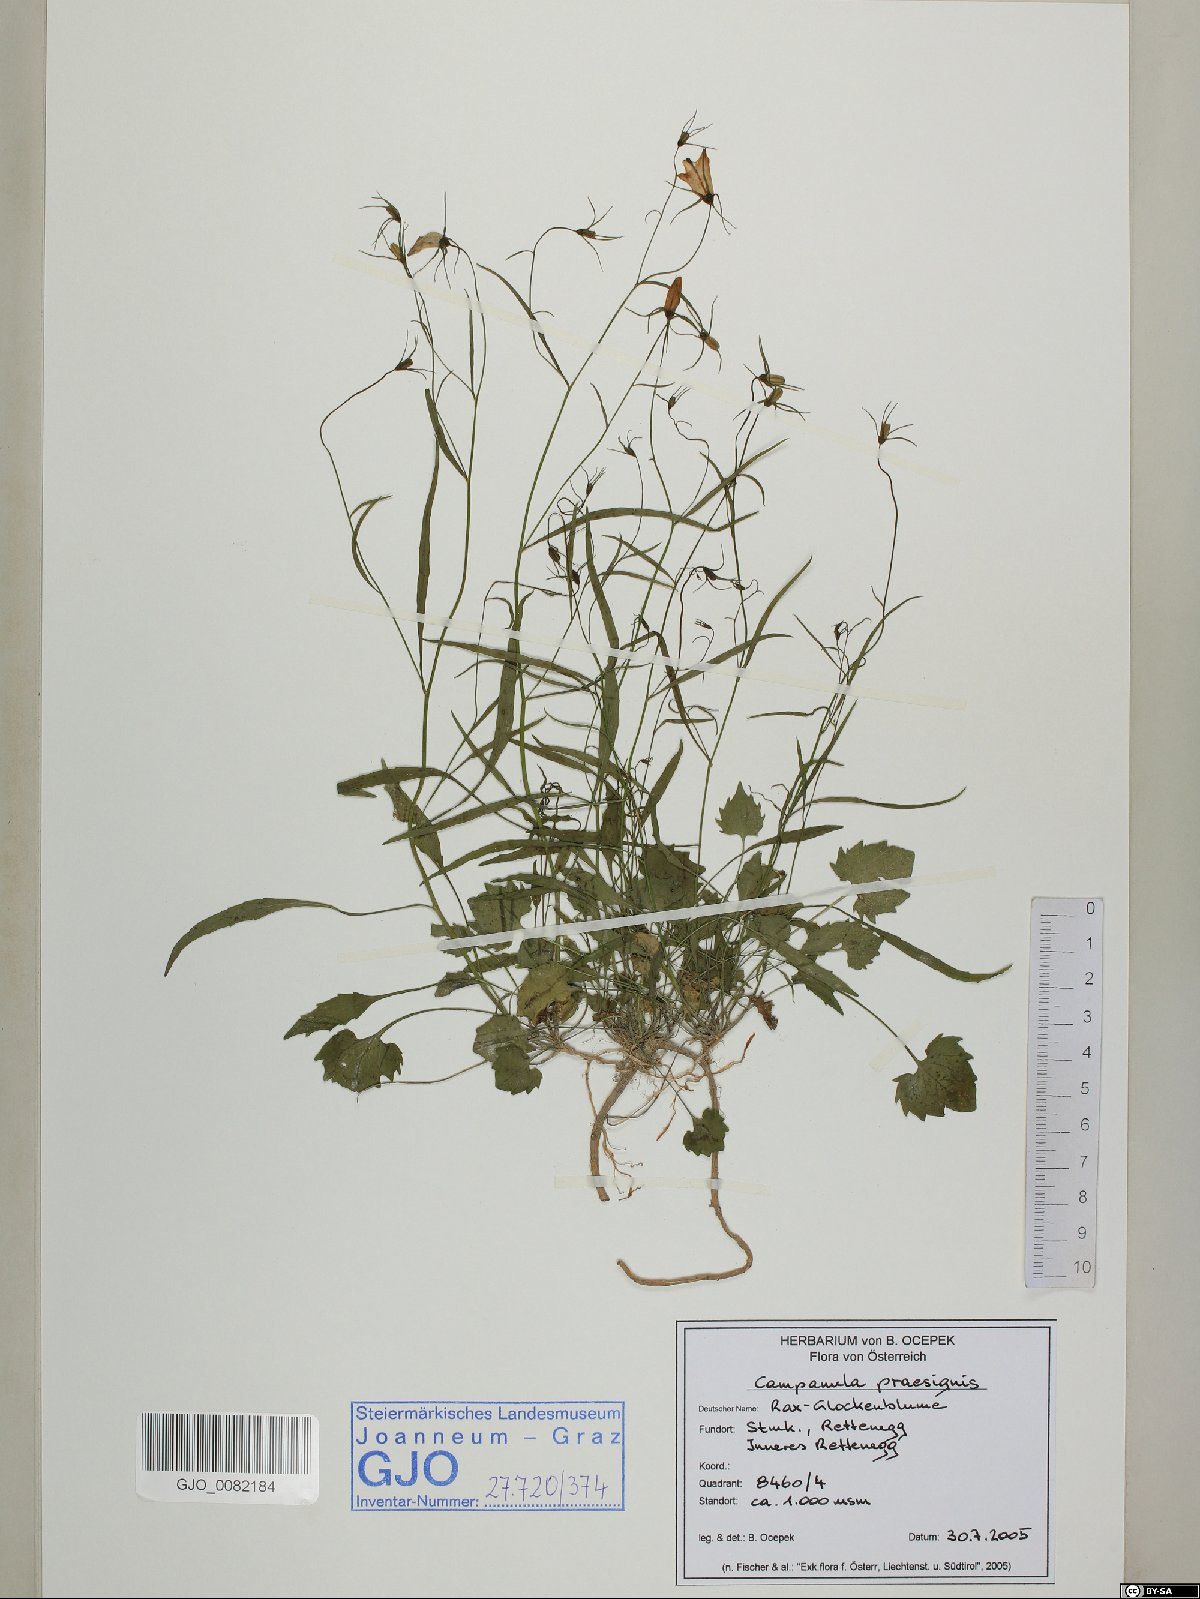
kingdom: Plantae
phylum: Tracheophyta
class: Magnoliopsida
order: Asterales
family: Campanulaceae
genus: Campanula
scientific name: Campanula praesignis
